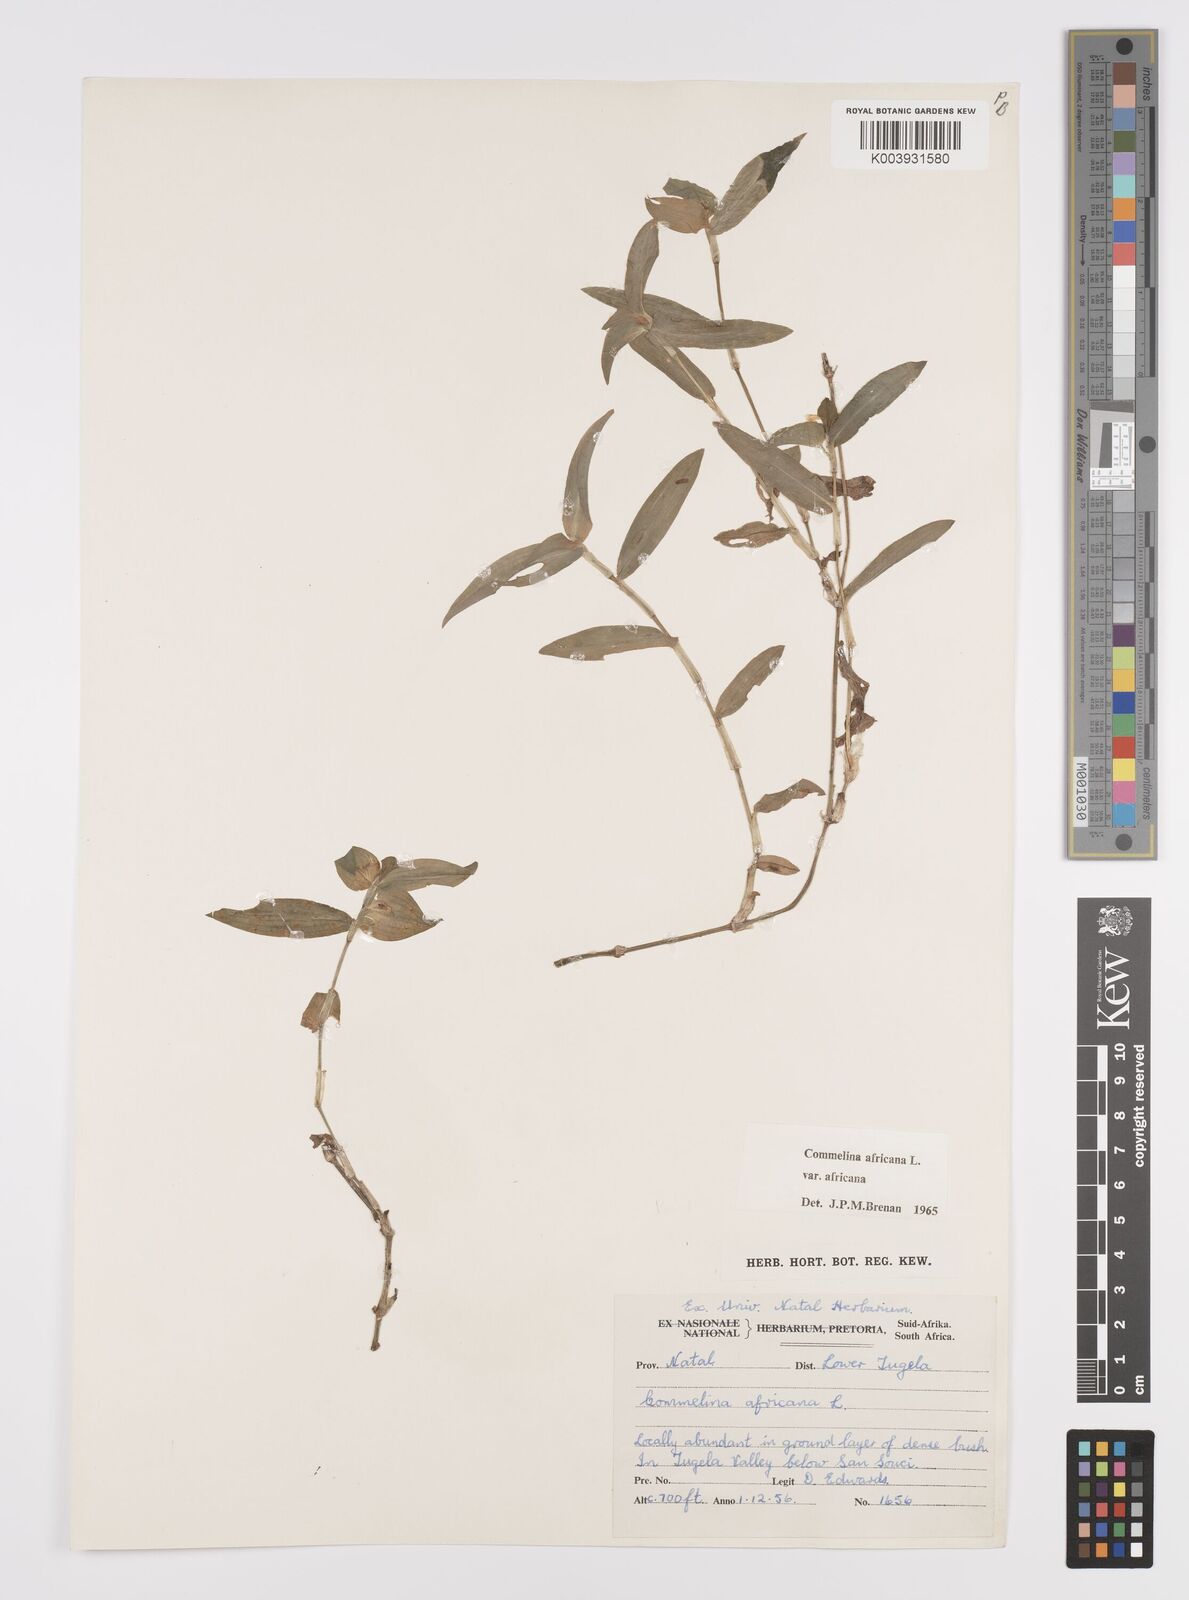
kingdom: Plantae
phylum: Tracheophyta
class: Liliopsida
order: Commelinales
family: Commelinaceae
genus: Commelina
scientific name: Commelina africana
